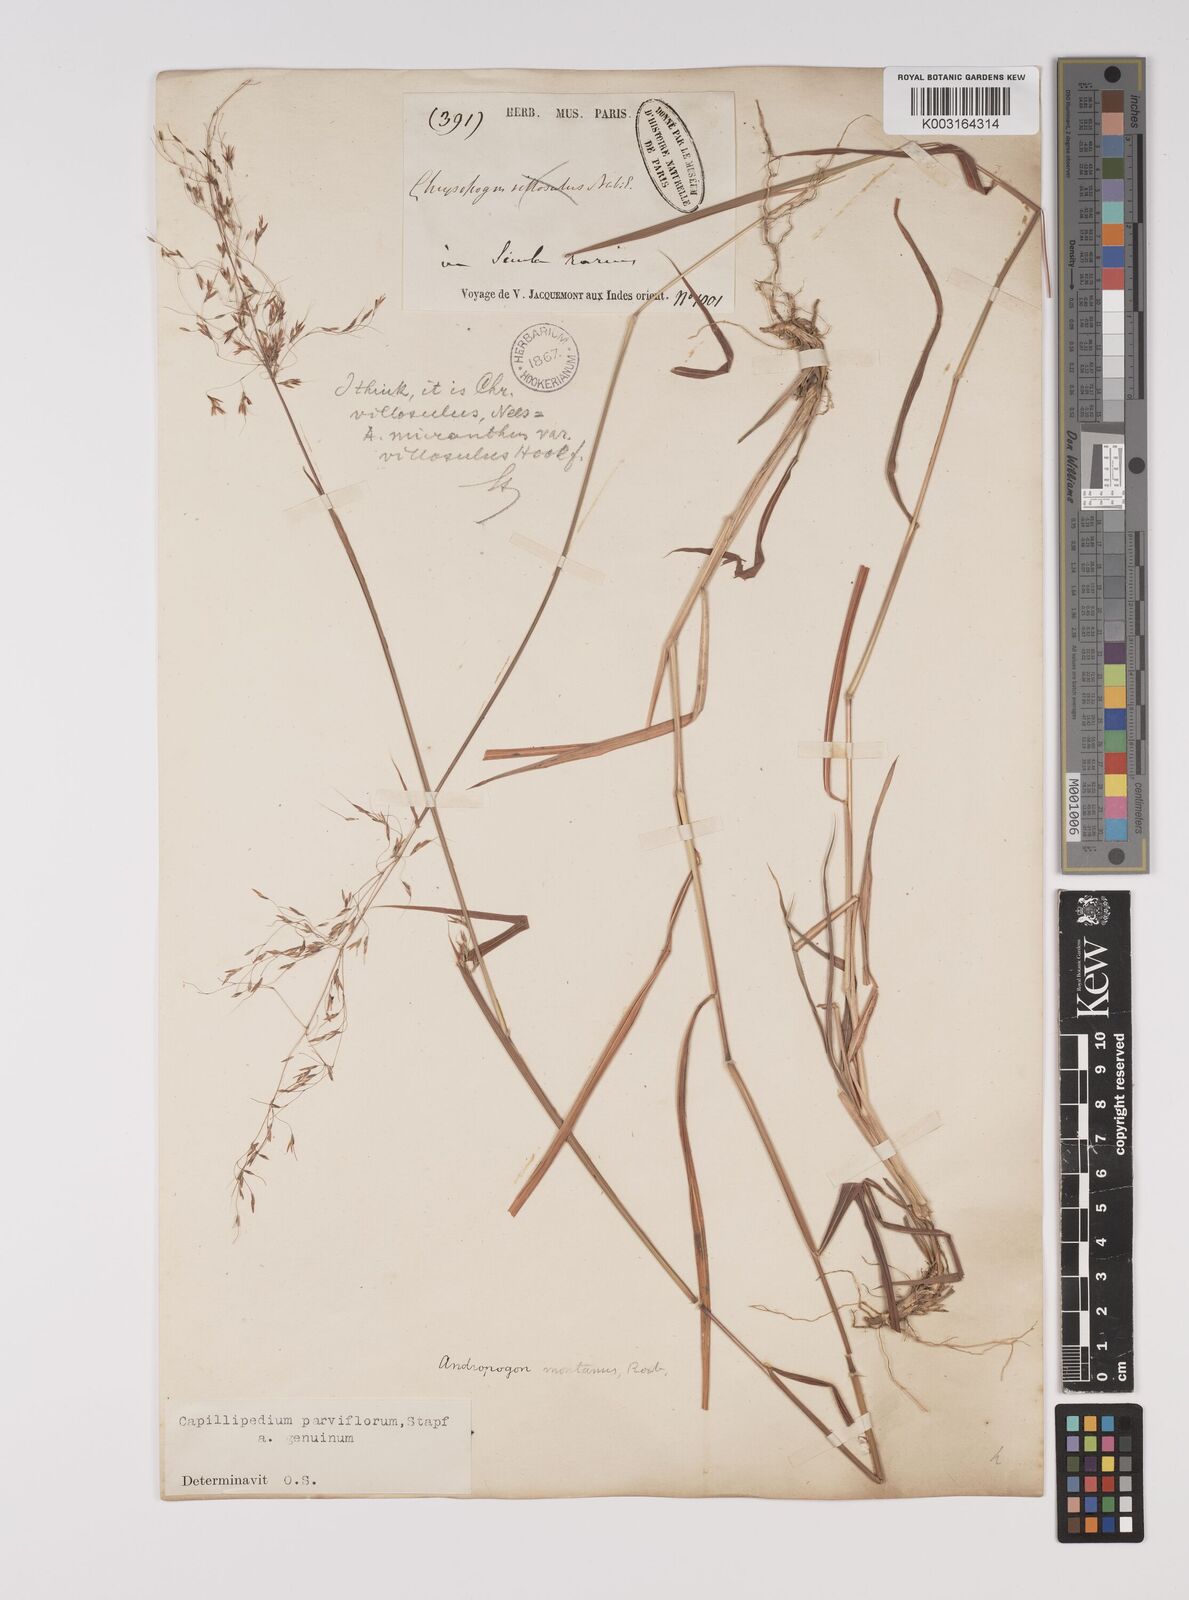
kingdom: Plantae
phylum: Tracheophyta
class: Liliopsida
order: Poales
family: Poaceae
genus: Capillipedium
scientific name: Capillipedium parviflorum
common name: Golden-beard
